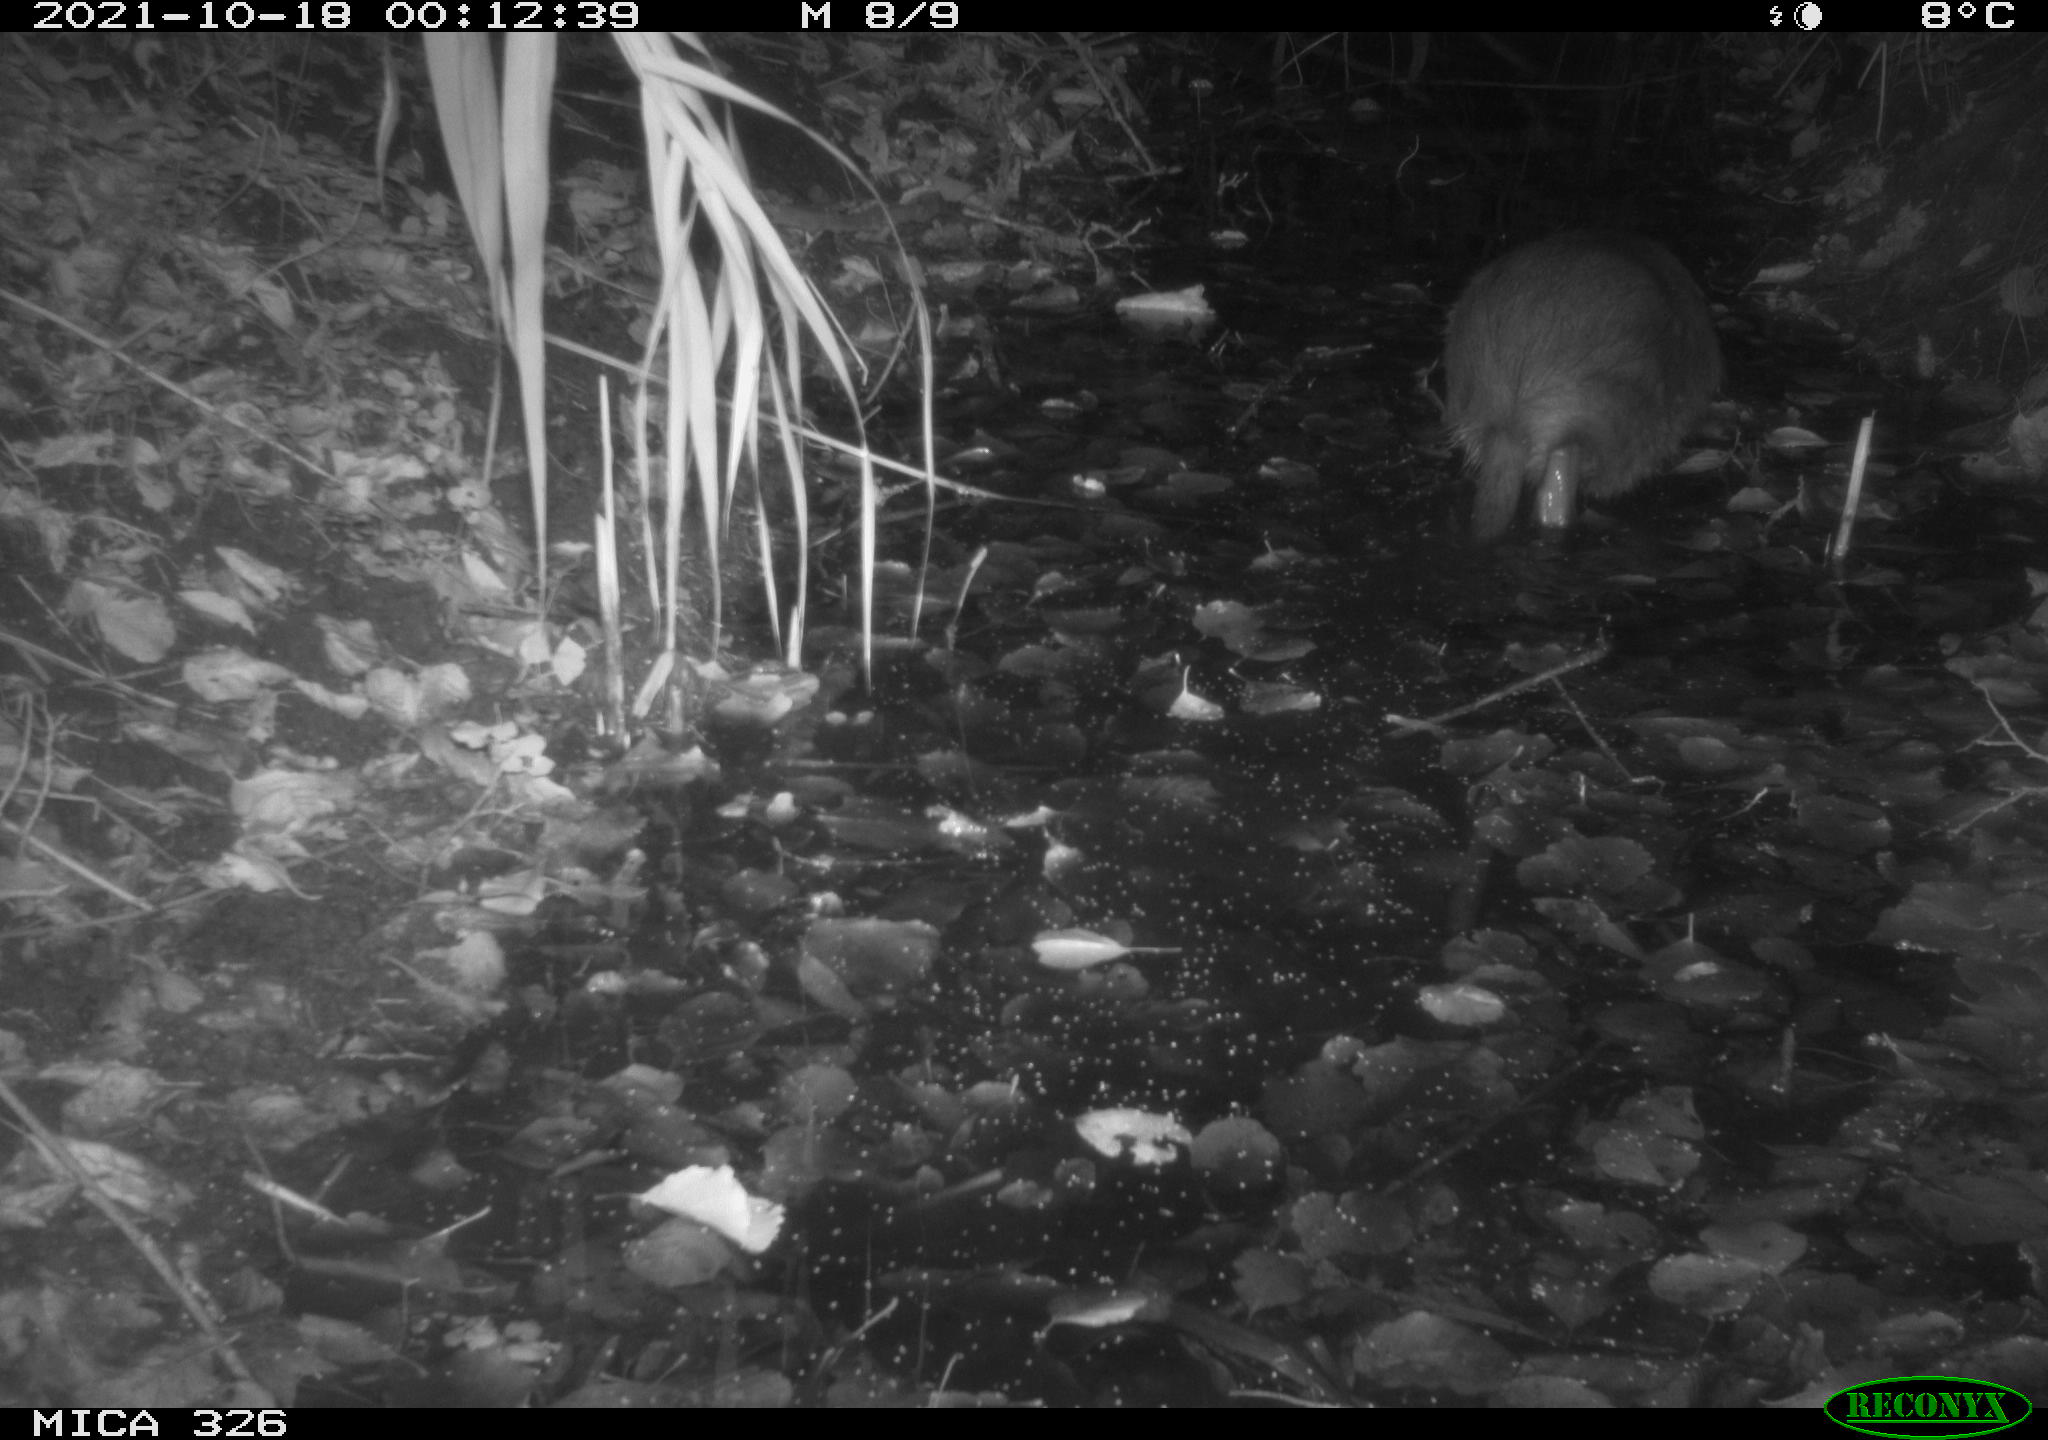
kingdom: Animalia
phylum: Chordata
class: Mammalia
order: Rodentia
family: Myocastoridae
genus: Myocastor
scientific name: Myocastor coypus
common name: Coypu
